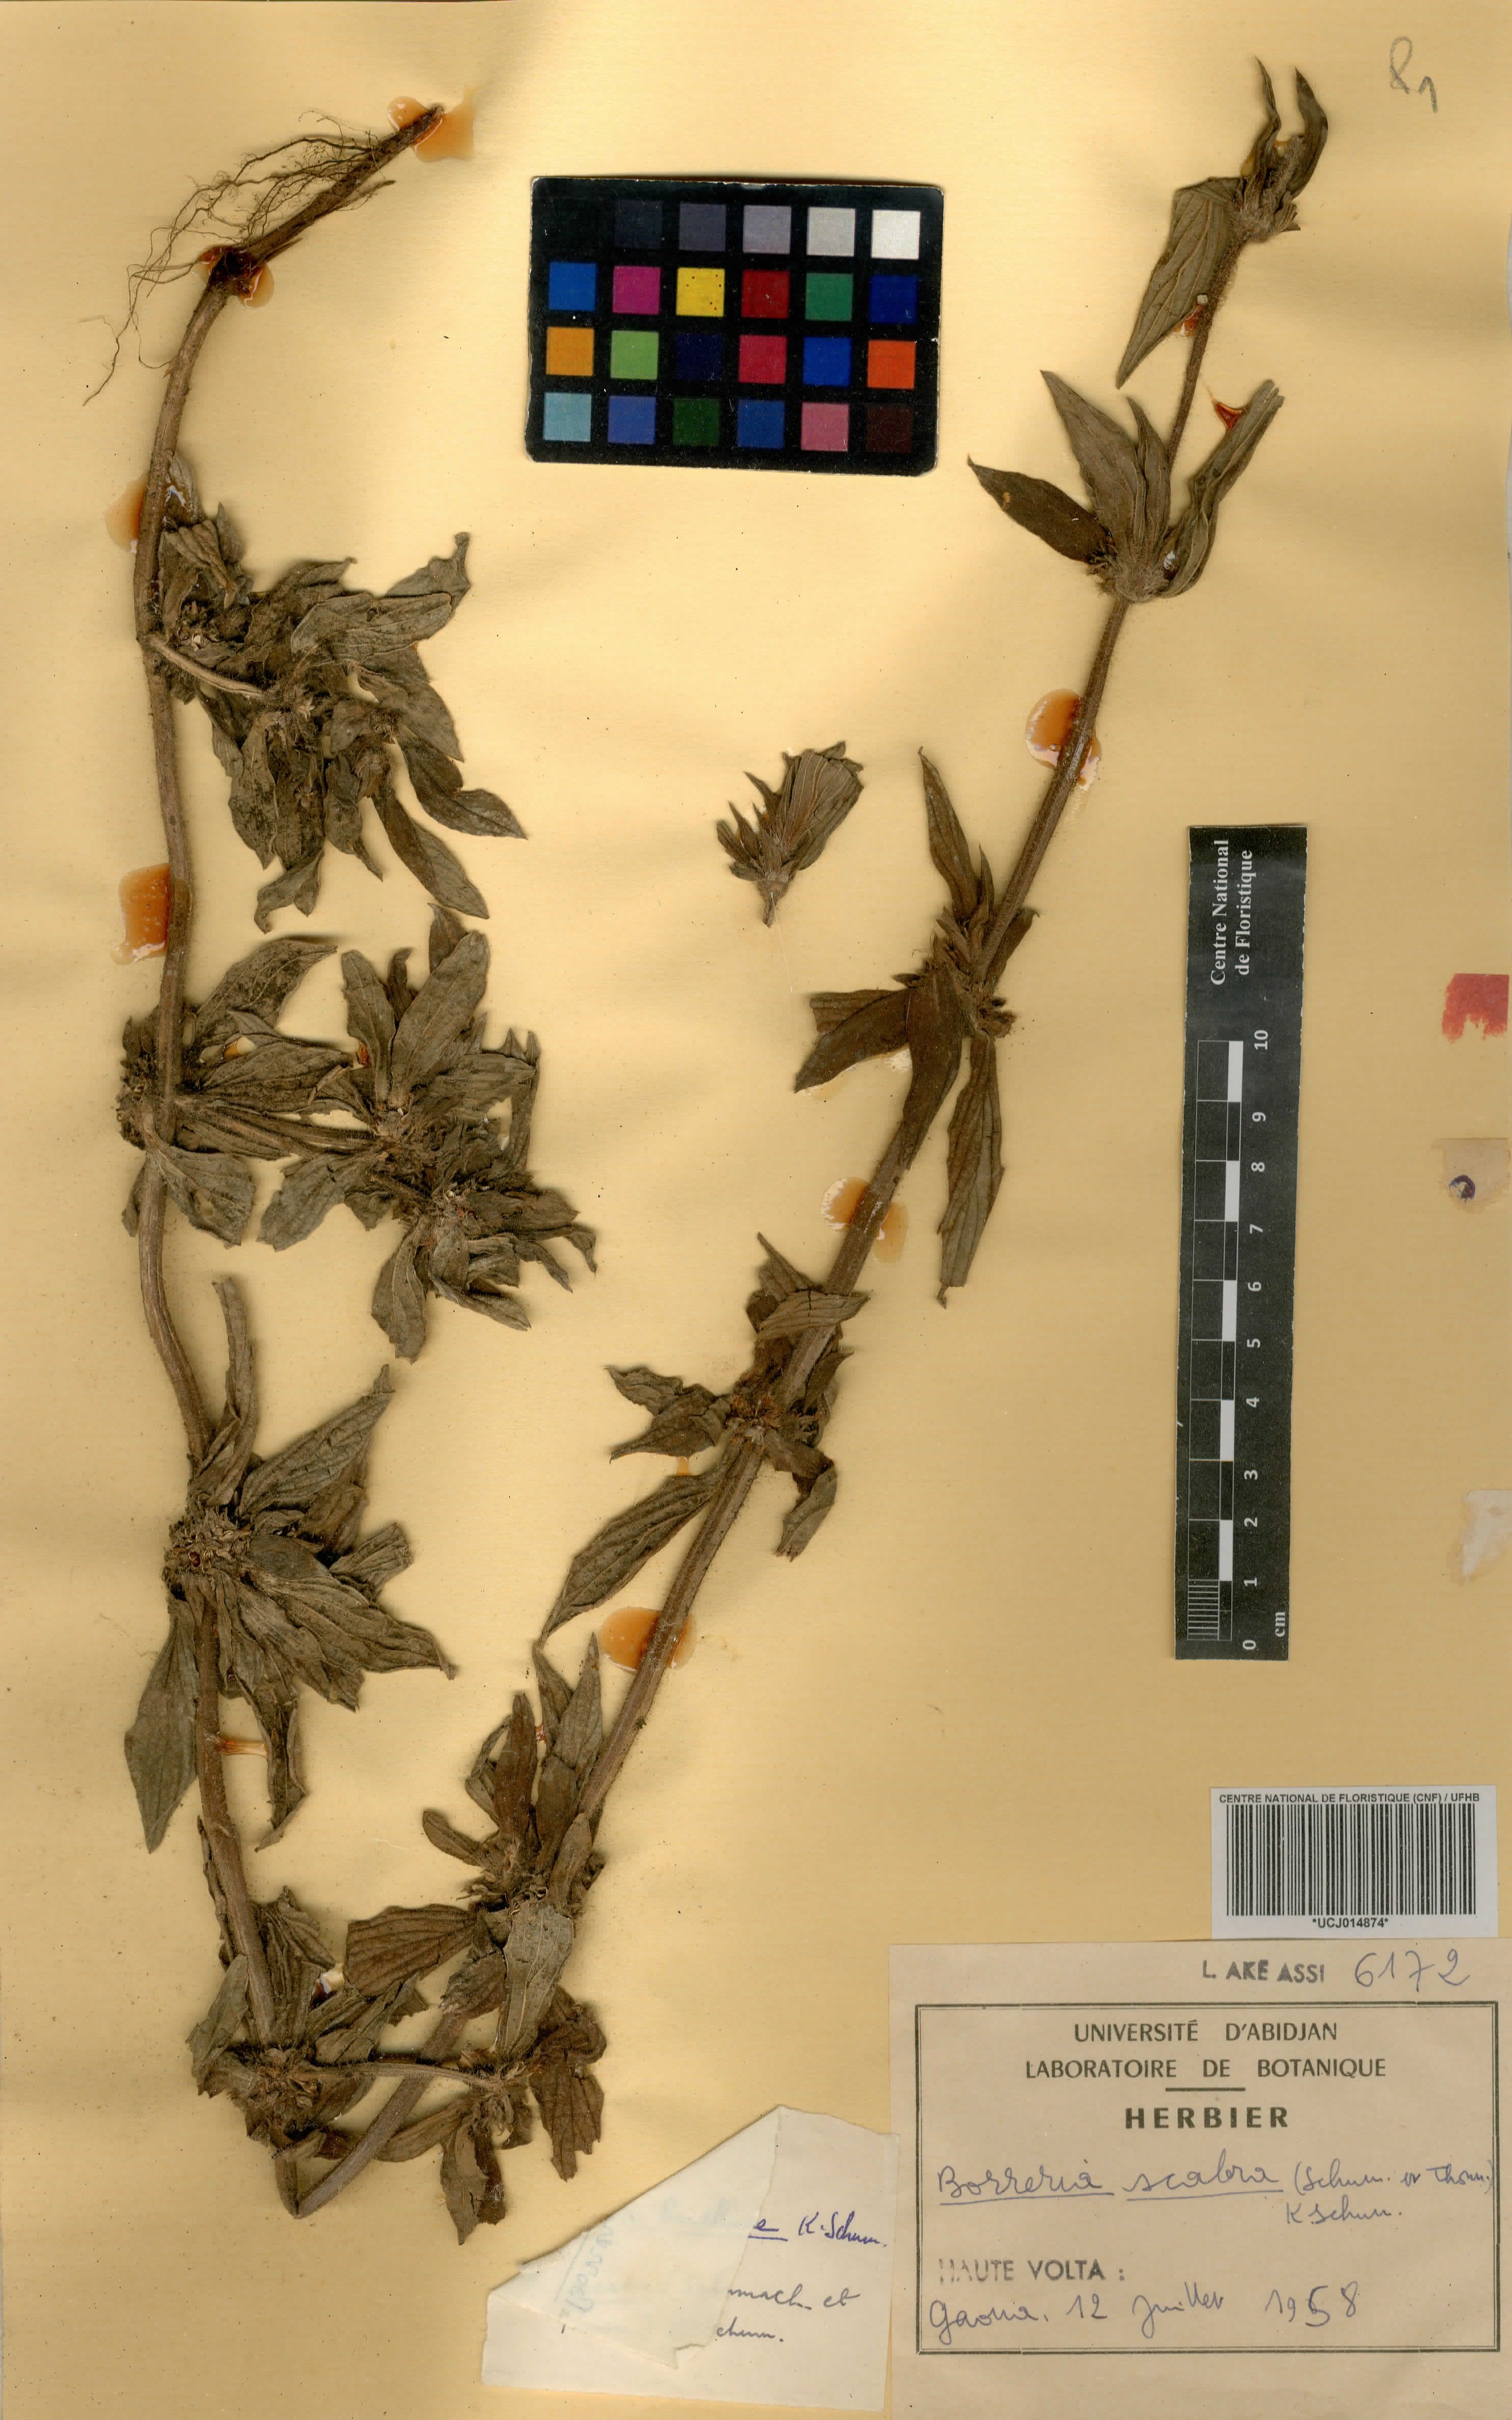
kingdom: Plantae
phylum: Tracheophyta
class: Magnoliopsida
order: Gentianales
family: Rubiaceae
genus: Spermacoce
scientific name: Spermacoce ruelliae
